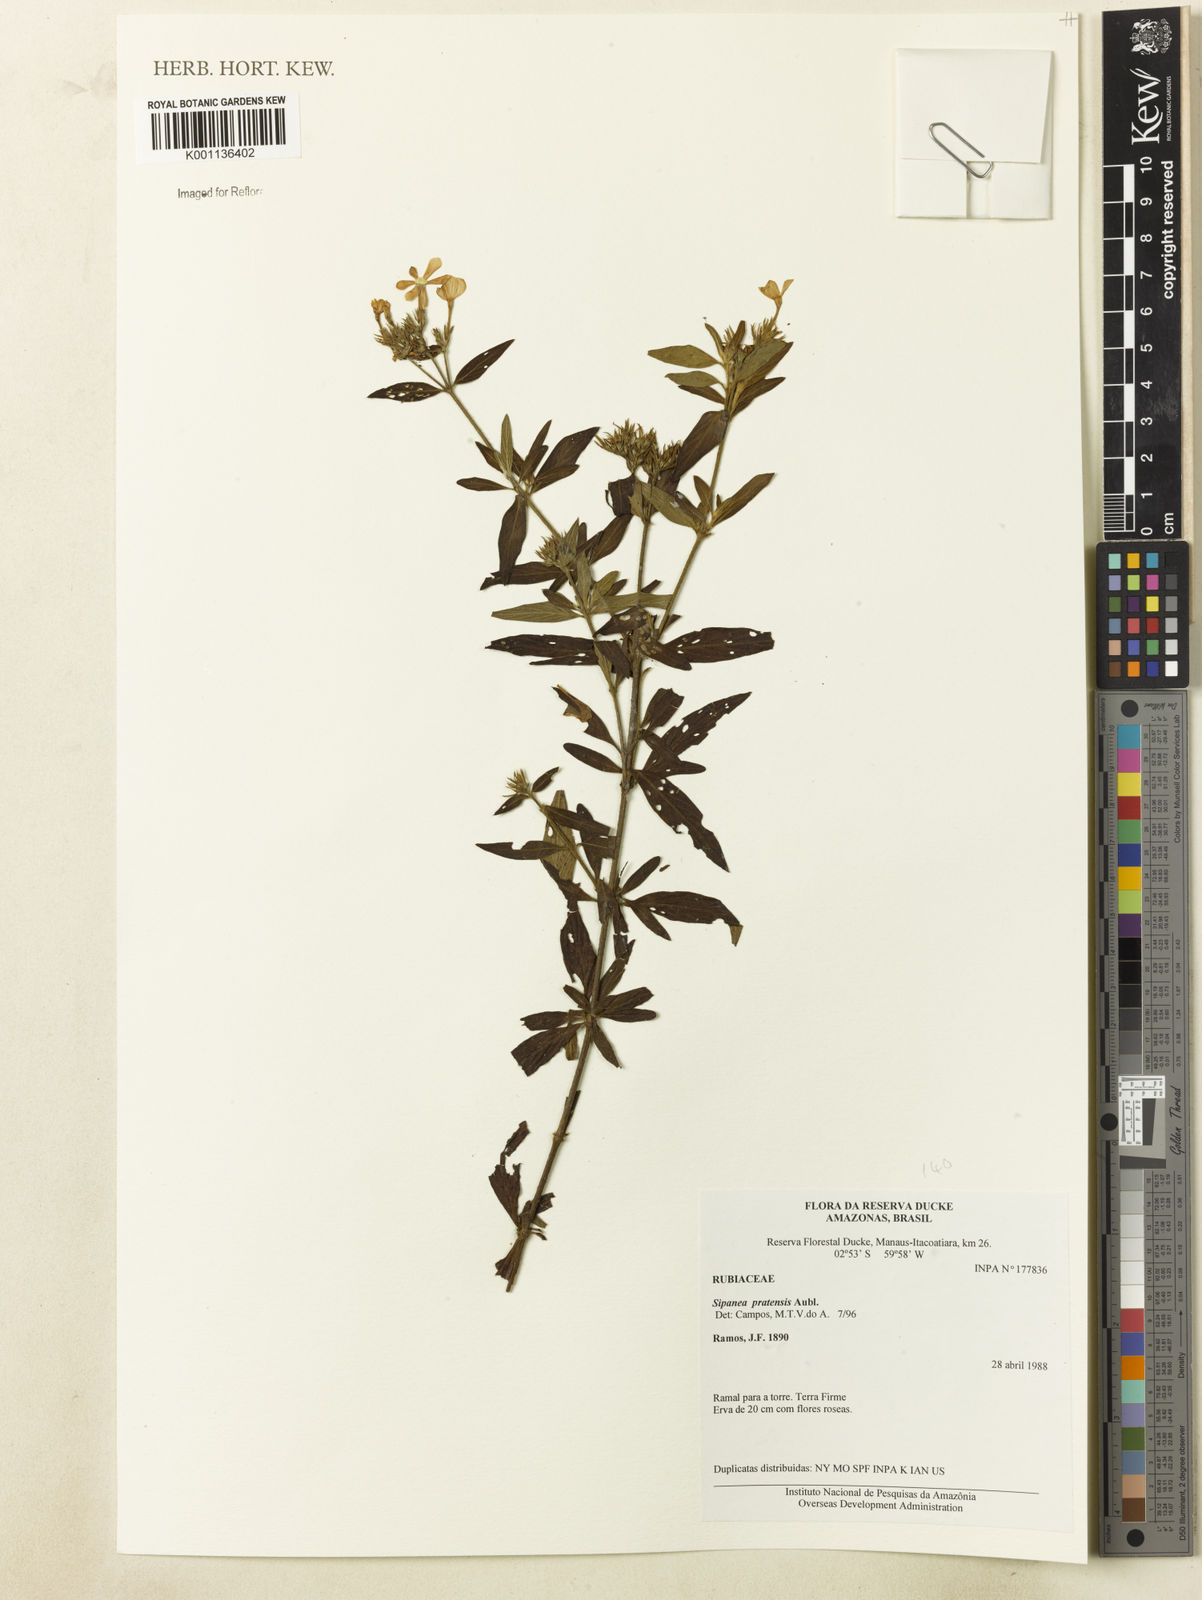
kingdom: Plantae
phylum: Tracheophyta
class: Magnoliopsida
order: Gentianales
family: Rubiaceae
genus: Sipanea
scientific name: Sipanea pratensis
